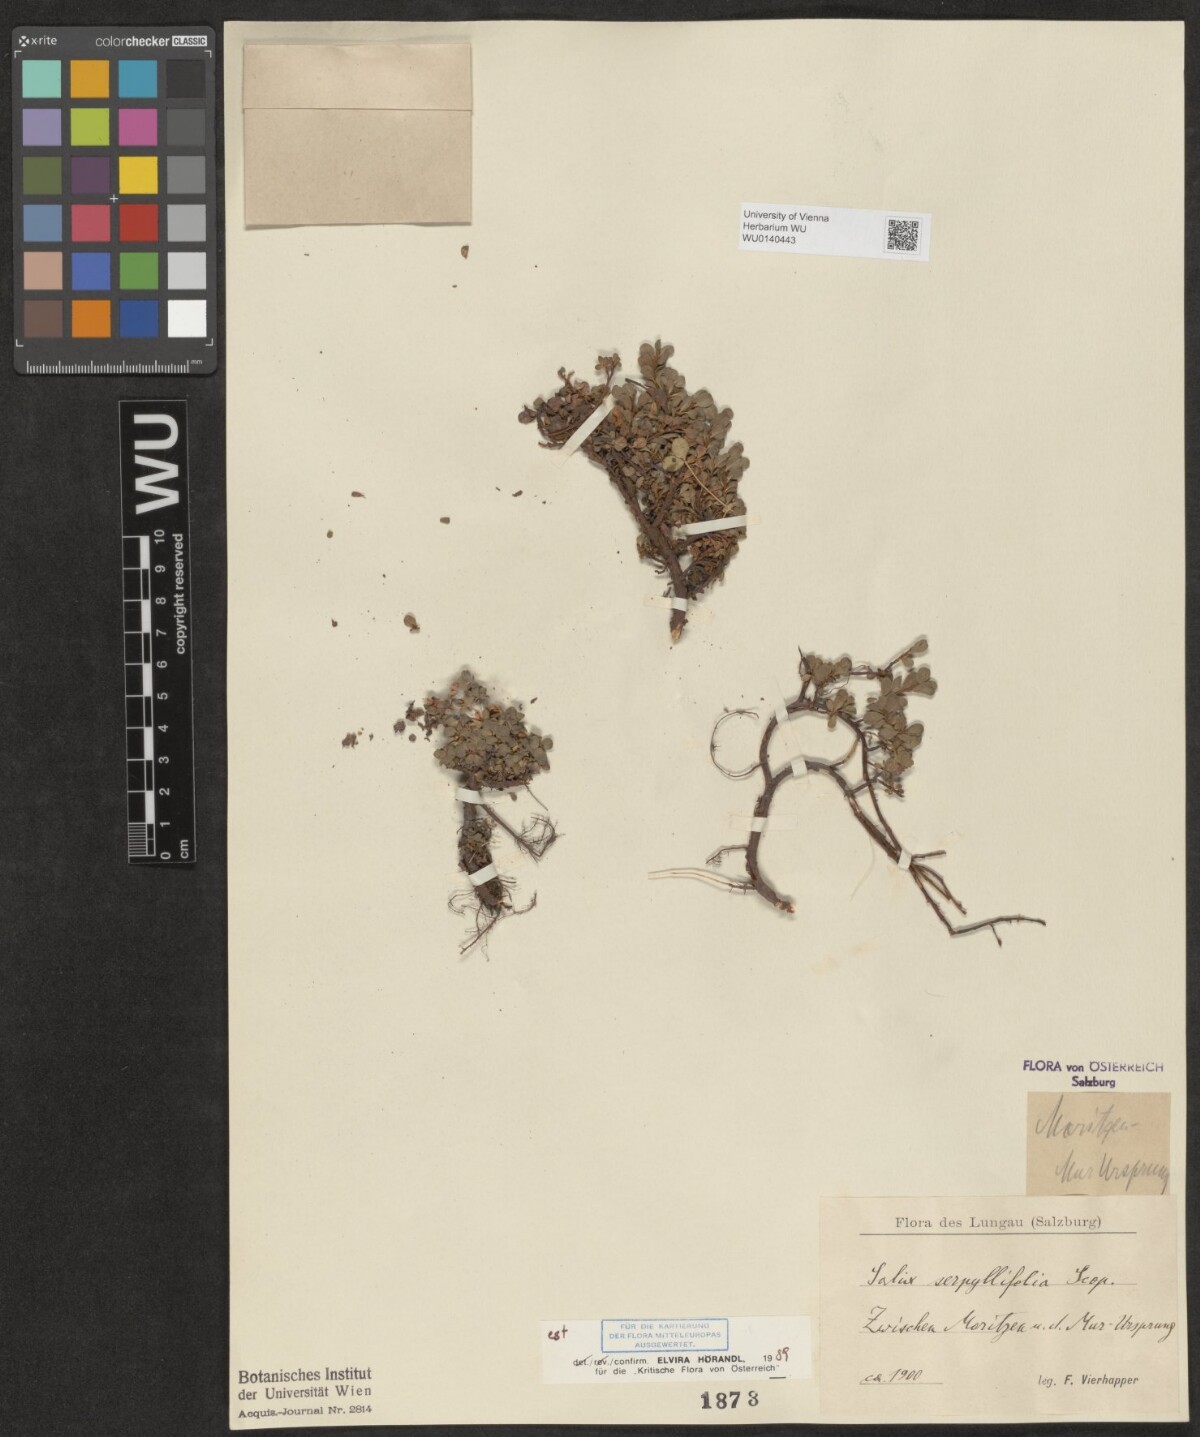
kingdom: Plantae
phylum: Tracheophyta
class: Magnoliopsida
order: Malpighiales
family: Salicaceae
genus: Salix
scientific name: Salix serpillifolia
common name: Thyme-leaf willow
